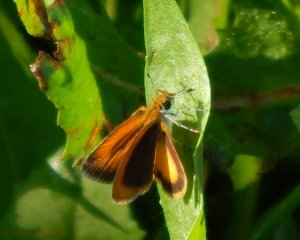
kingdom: Animalia
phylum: Arthropoda
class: Insecta
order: Lepidoptera
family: Hesperiidae
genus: Ancyloxypha
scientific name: Ancyloxypha numitor
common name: Least Skipper
